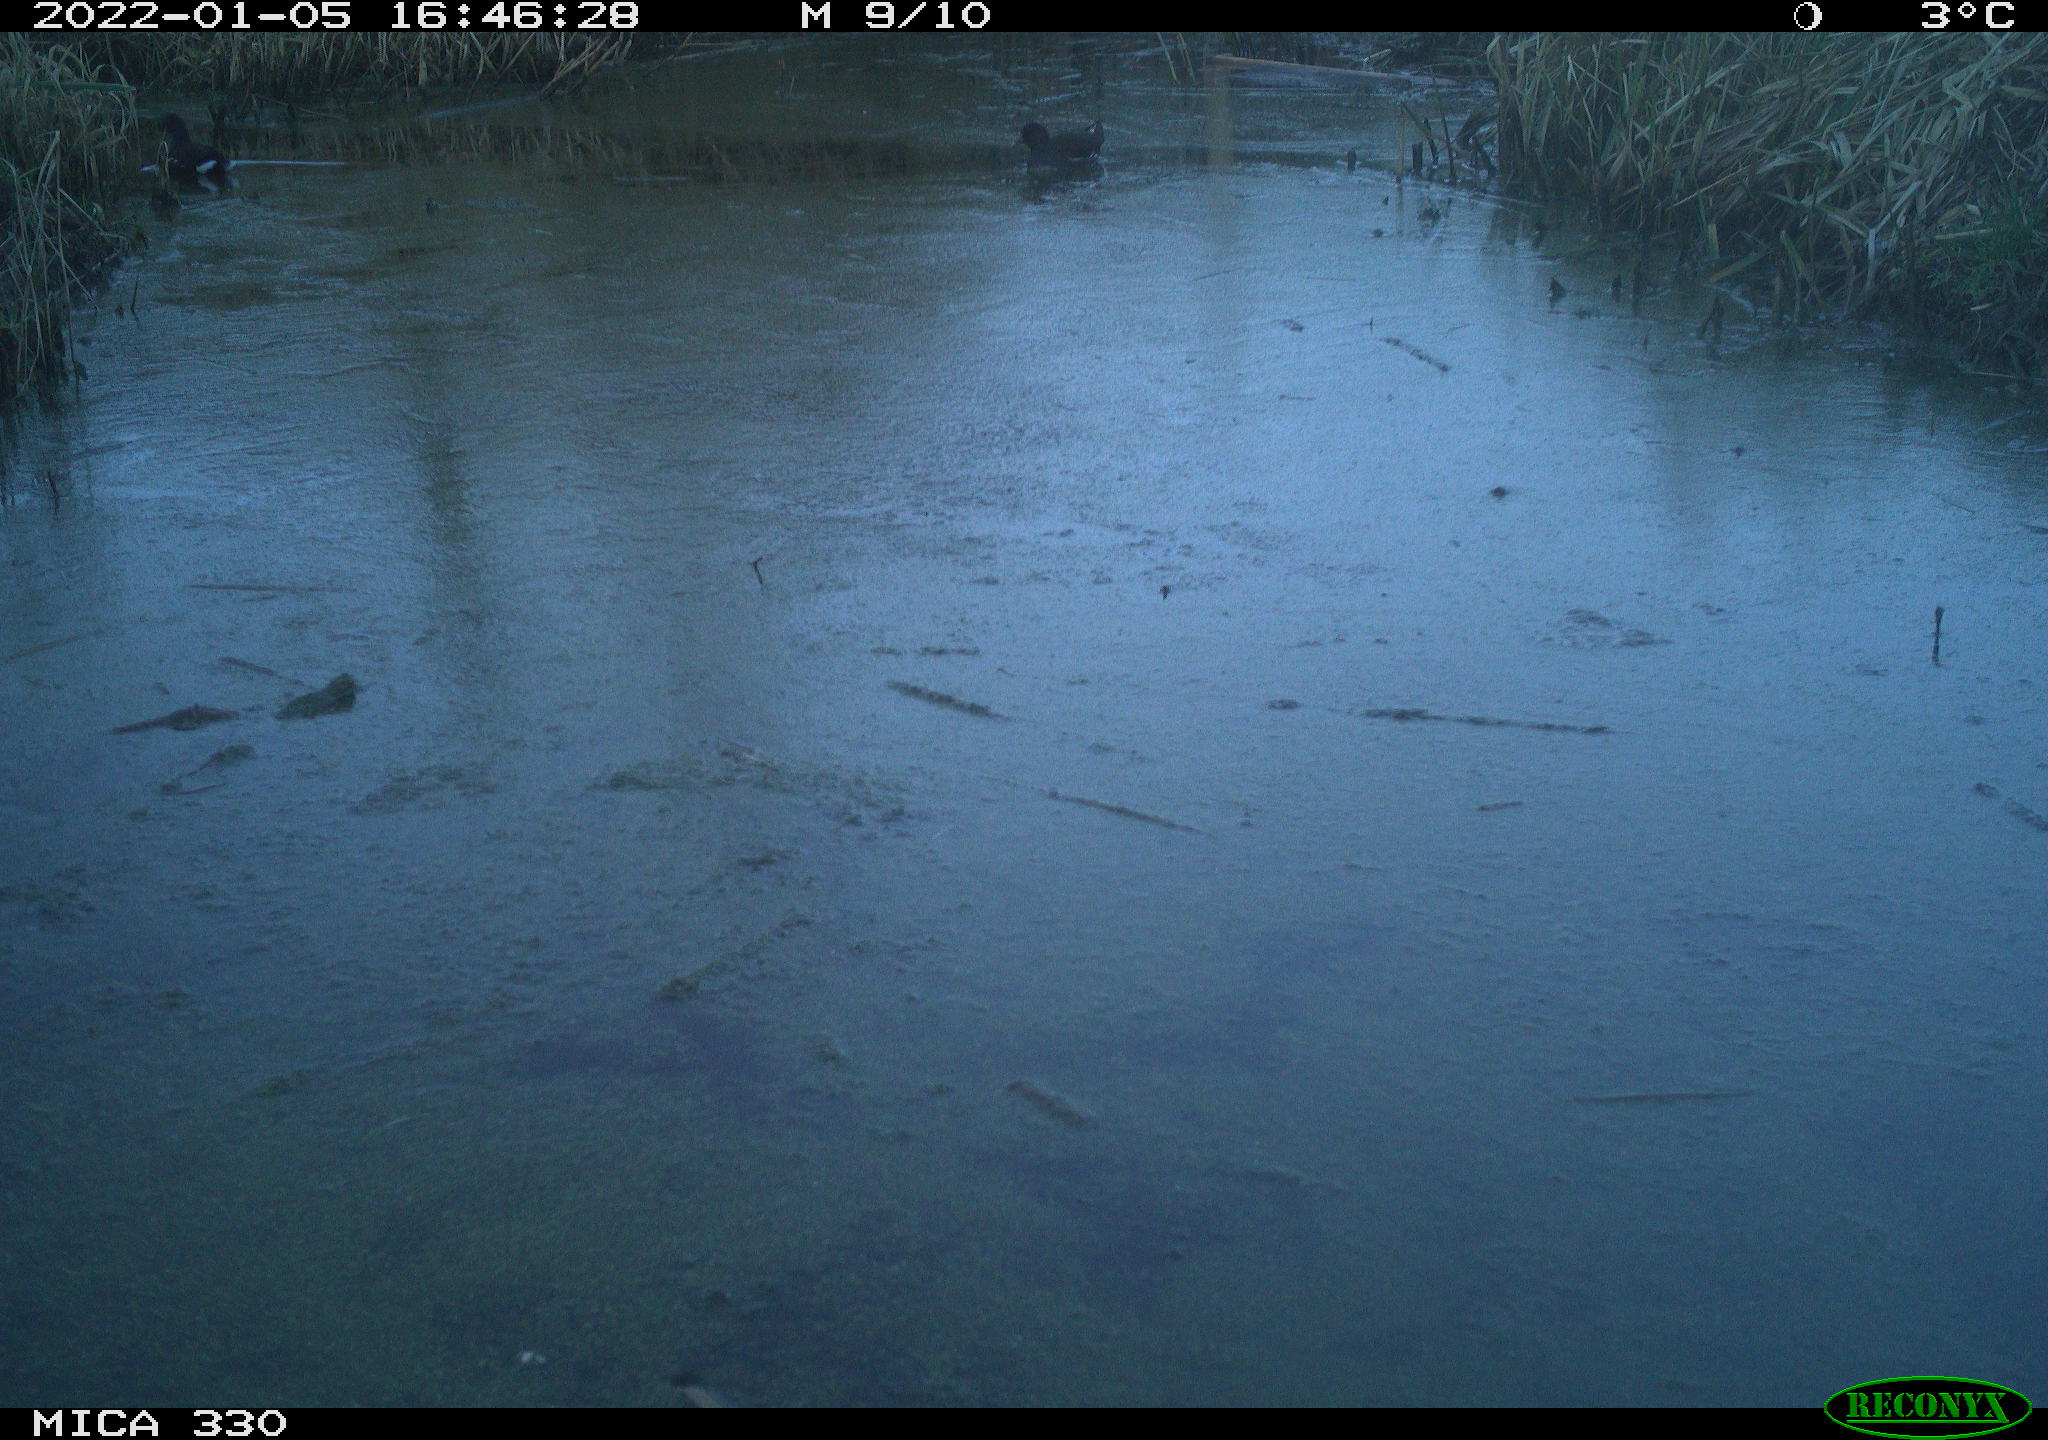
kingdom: Animalia
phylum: Chordata
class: Aves
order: Gruiformes
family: Rallidae
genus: Gallinula
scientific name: Gallinula chloropus
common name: Common moorhen
